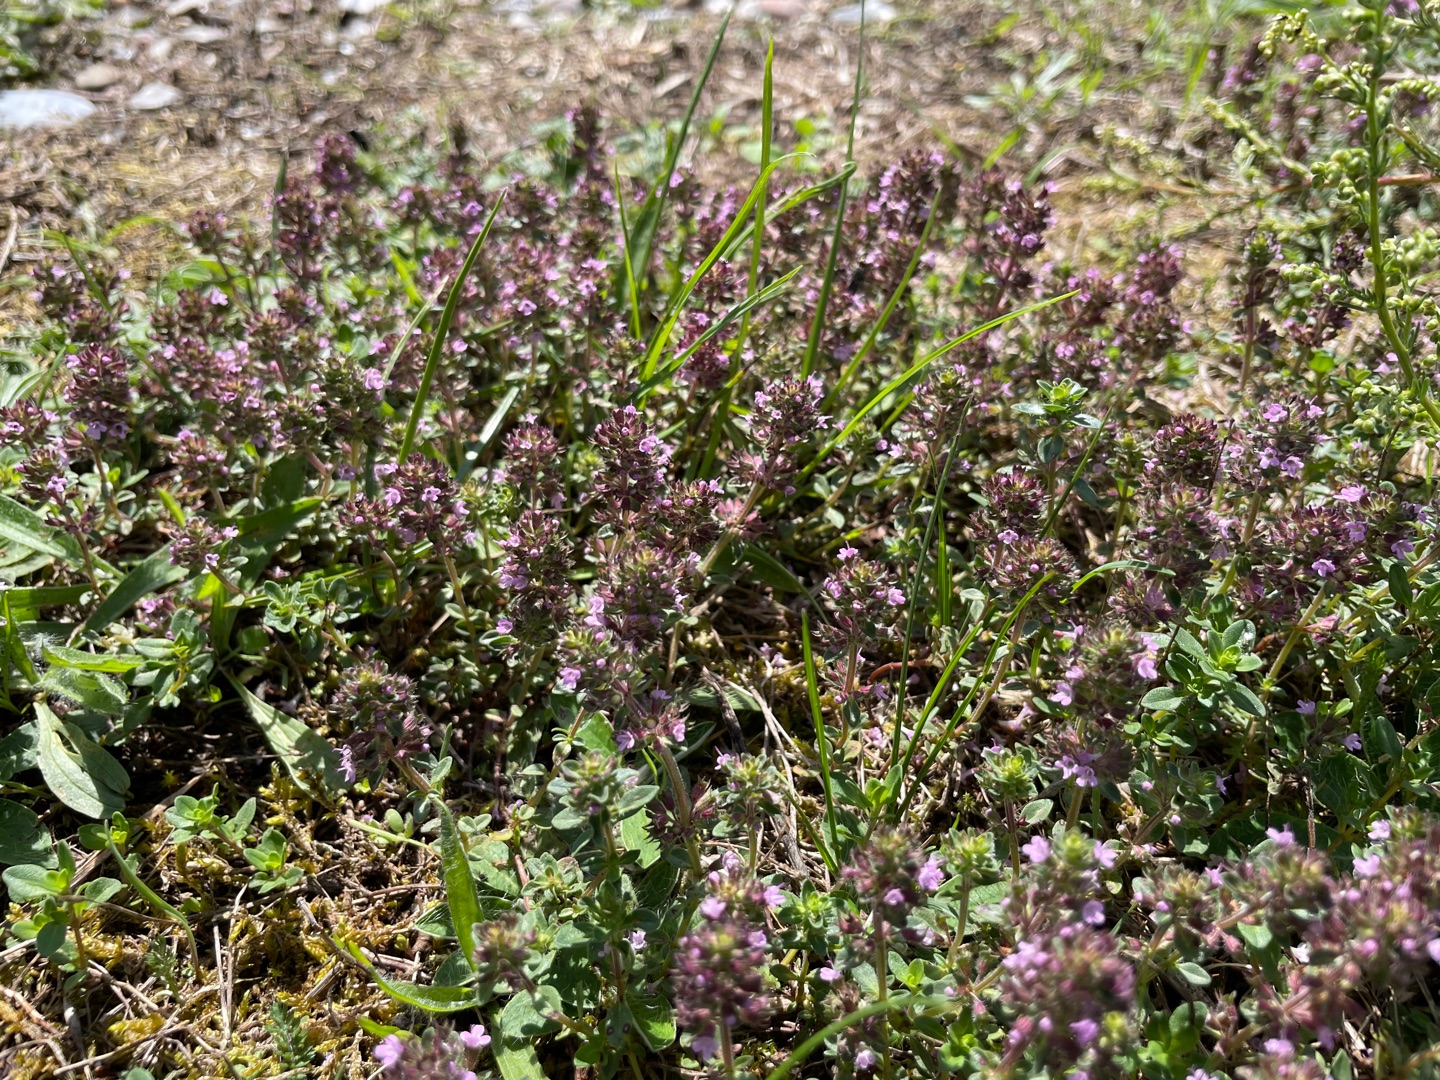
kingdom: Plantae
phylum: Tracheophyta
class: Magnoliopsida
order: Lamiales
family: Lamiaceae
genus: Thymus
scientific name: Thymus pulegioides
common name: Bredbladet timian
